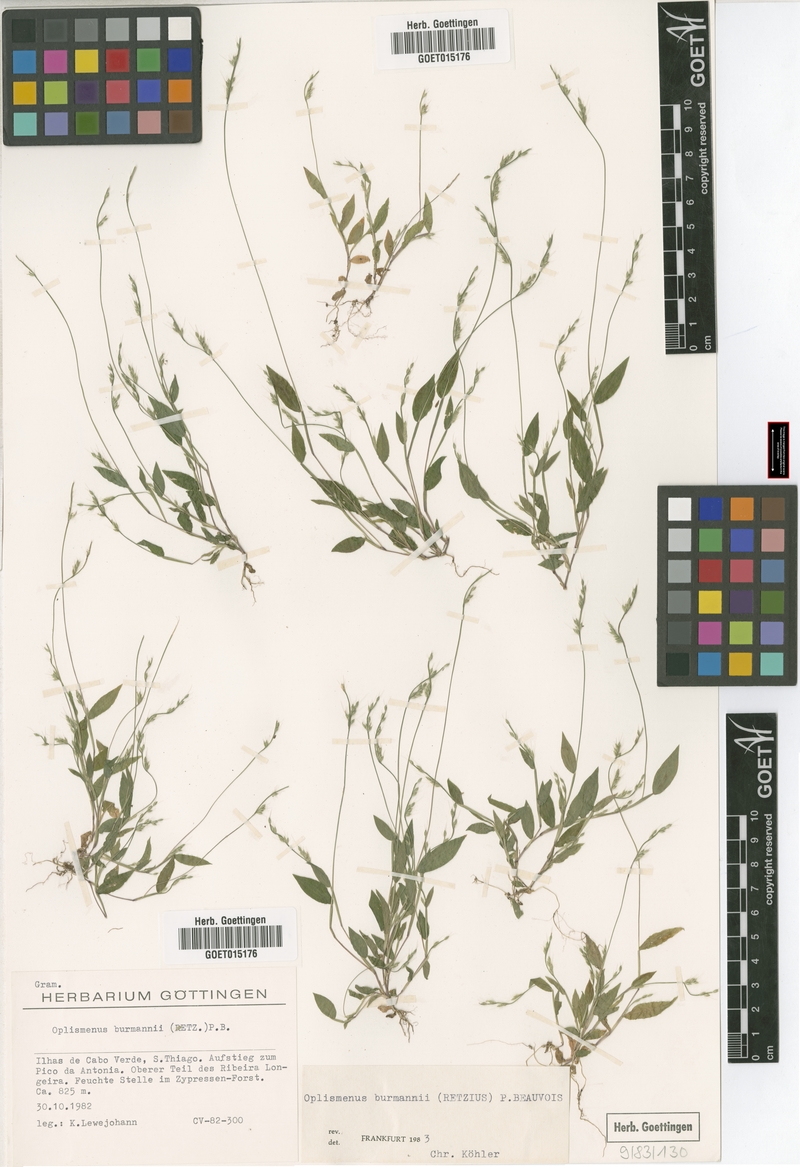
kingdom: Plantae
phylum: Tracheophyta
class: Liliopsida
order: Poales
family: Poaceae
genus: Oplismenus
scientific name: Oplismenus burmanni
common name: Burmann's basketgrass
